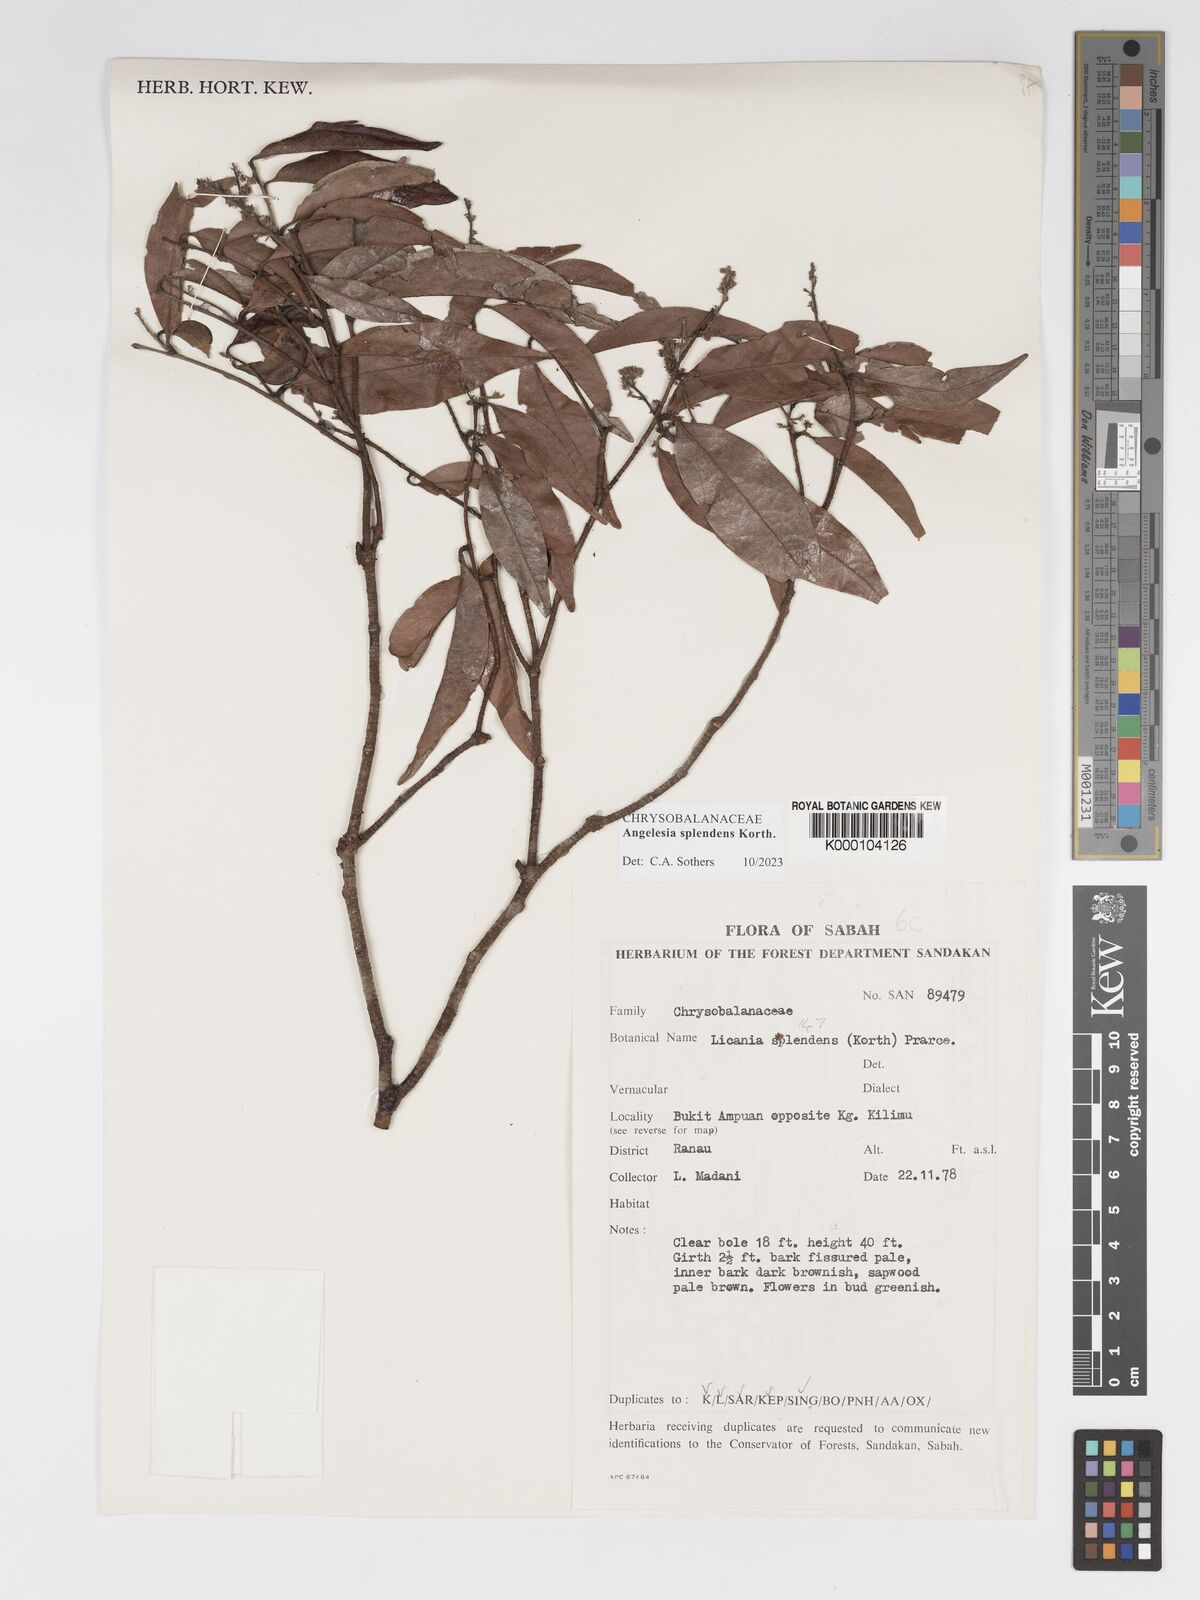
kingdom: Plantae
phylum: Tracheophyta
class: Magnoliopsida
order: Malpighiales
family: Chrysobalanaceae
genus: Angelesia
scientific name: Angelesia splendens
